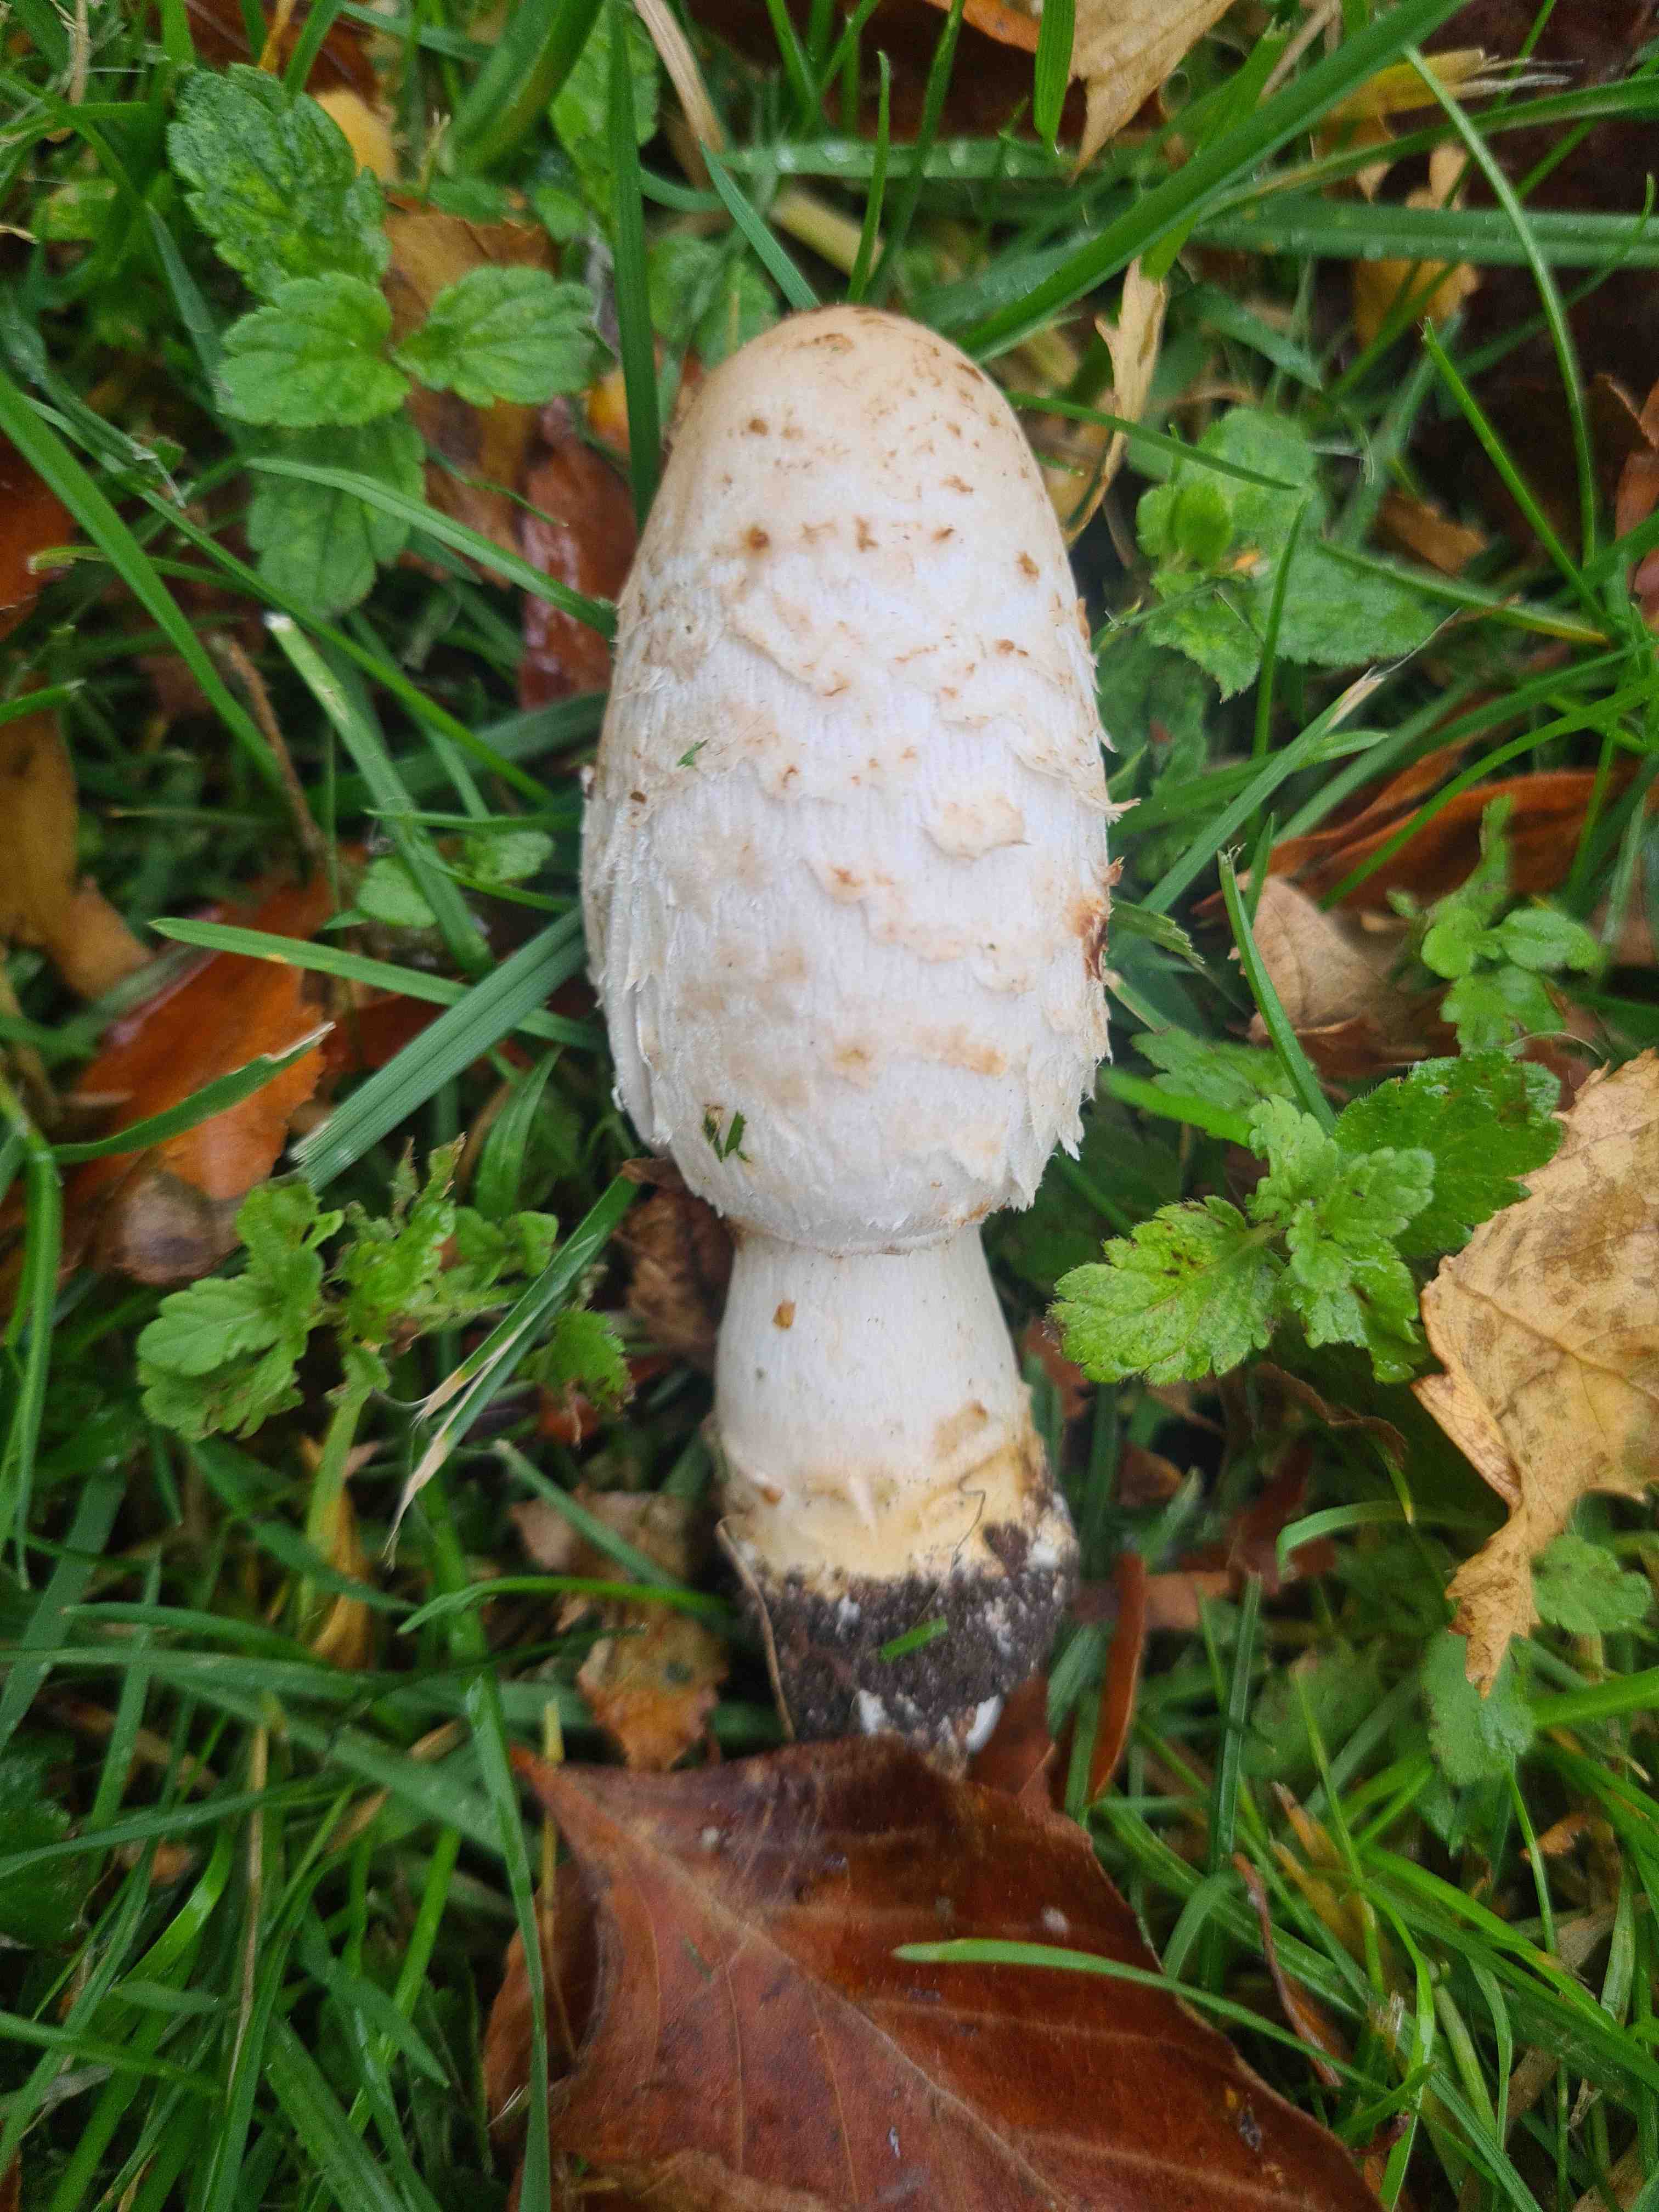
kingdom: Fungi
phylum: Basidiomycota
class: Agaricomycetes
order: Agaricales
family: Agaricaceae
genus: Coprinus
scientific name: Coprinus comatus
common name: stor parykhat
